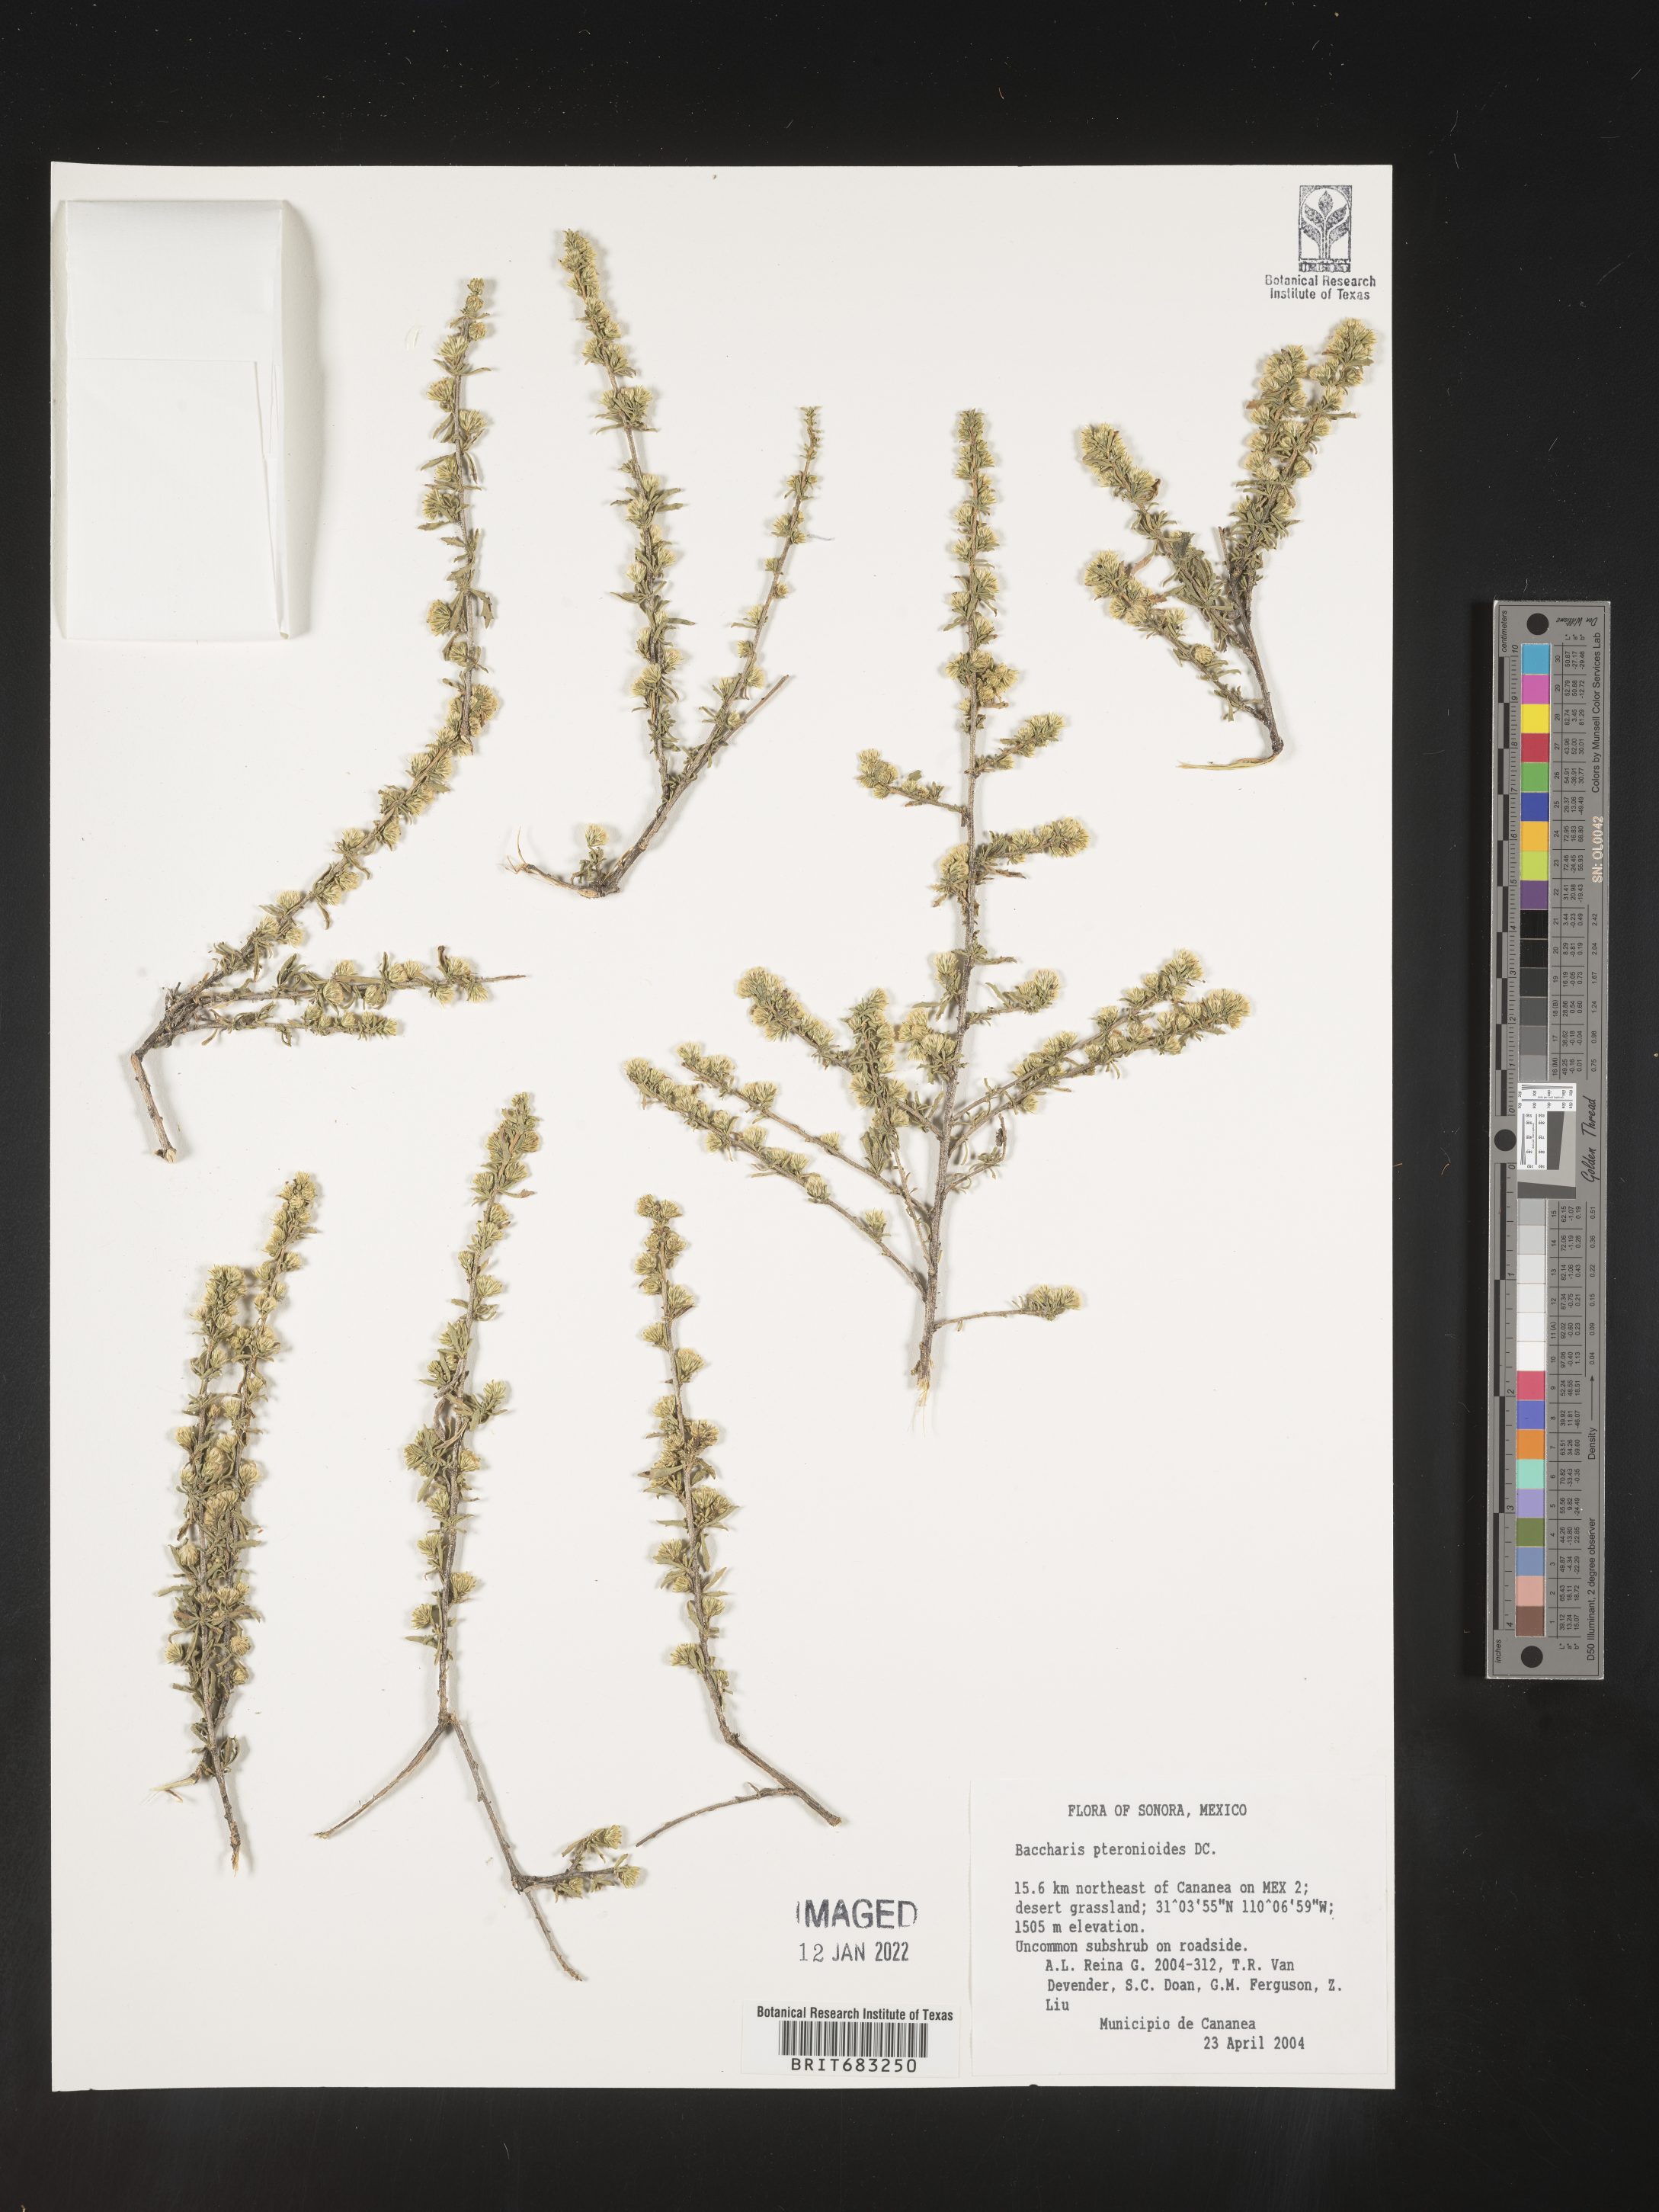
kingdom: Plantae
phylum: Tracheophyta
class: Magnoliopsida
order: Asterales
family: Asteraceae
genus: Baccharis
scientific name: Baccharis pteronioides
